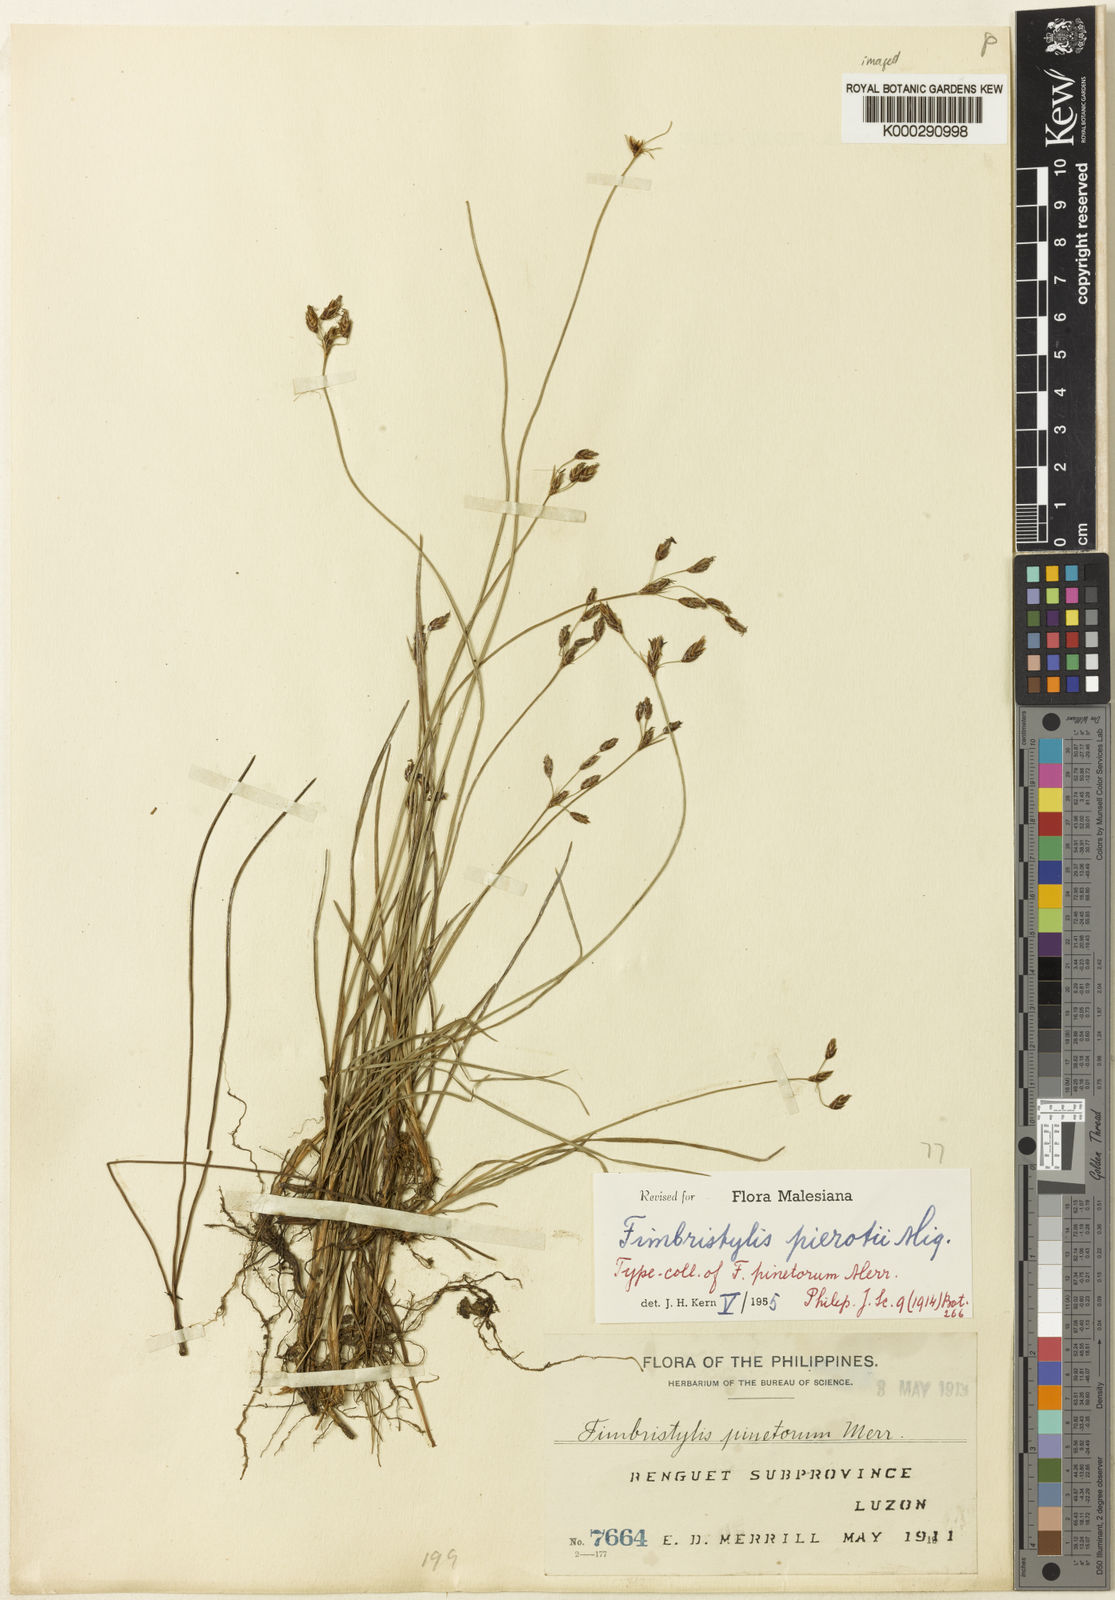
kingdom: Plantae
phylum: Tracheophyta
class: Liliopsida
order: Poales
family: Cyperaceae
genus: Fimbristylis
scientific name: Fimbristylis pierotii
